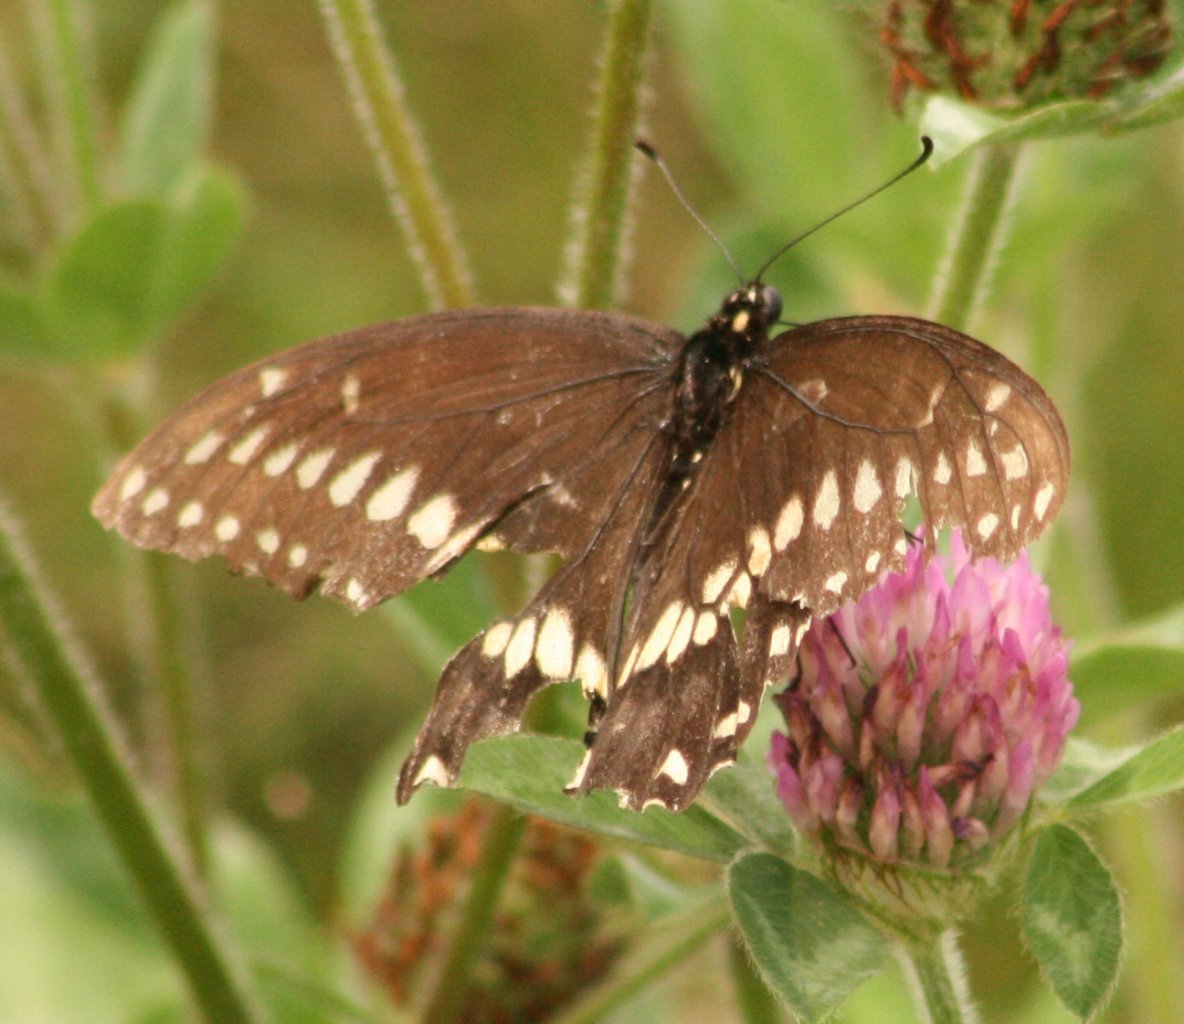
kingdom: Animalia
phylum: Arthropoda
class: Insecta
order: Lepidoptera
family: Papilionidae
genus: Papilio
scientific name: Papilio polyxenes
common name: Black Swallowtail
